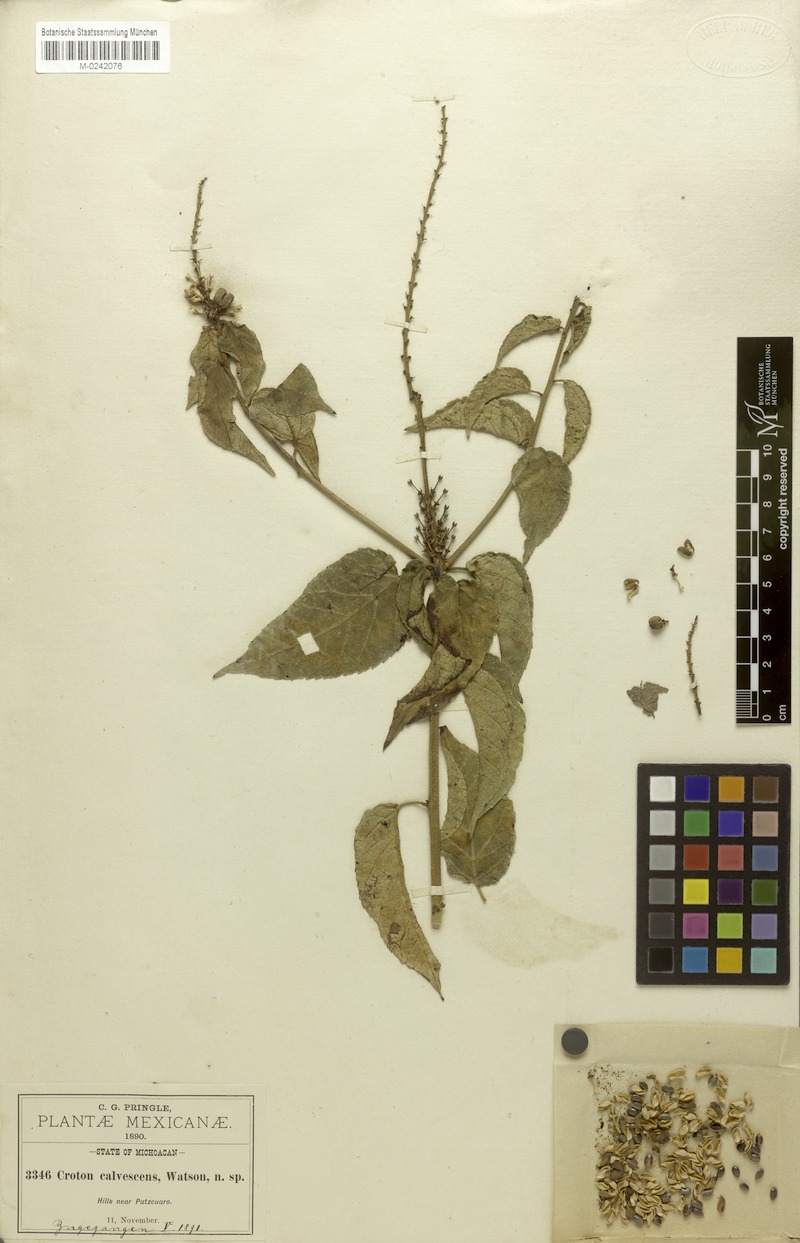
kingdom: Plantae
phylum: Tracheophyta
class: Magnoliopsida
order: Malpighiales
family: Euphorbiaceae
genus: Croton
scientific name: Croton adspersus
